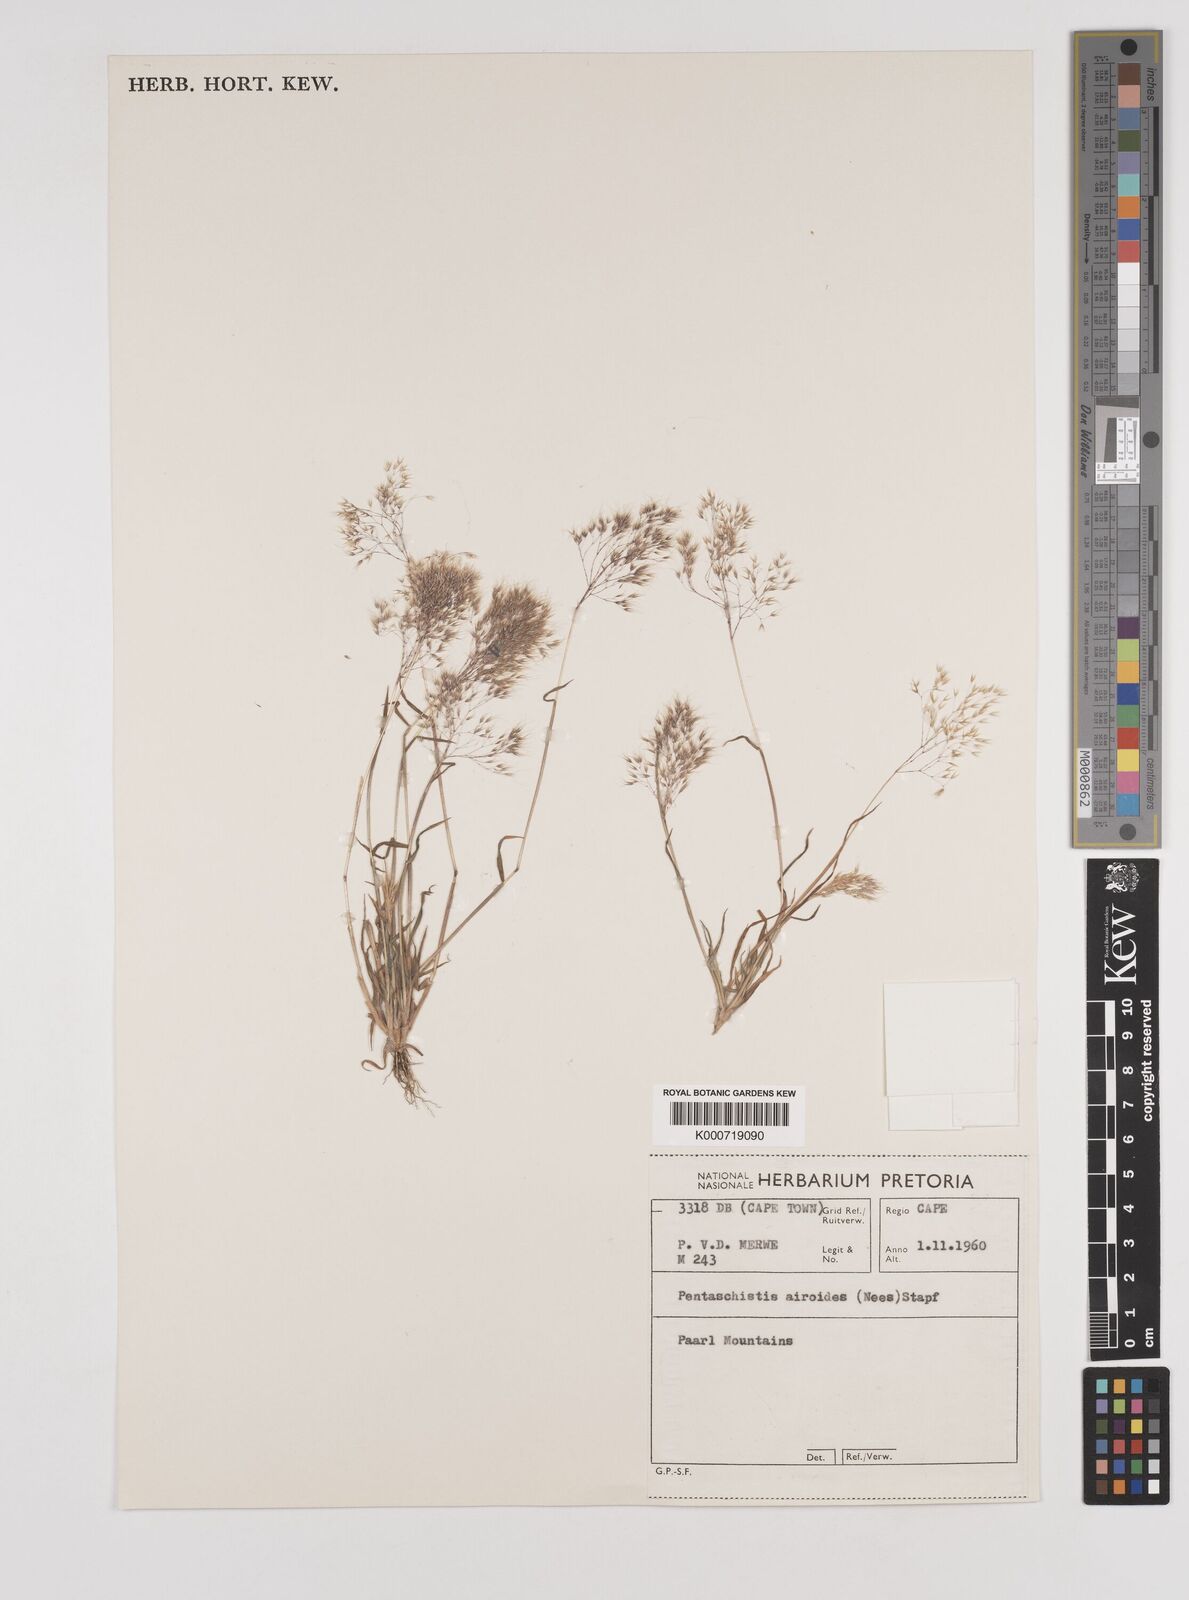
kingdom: Plantae
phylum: Tracheophyta
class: Liliopsida
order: Poales
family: Poaceae
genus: Pentameris
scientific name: Pentameris airoides
